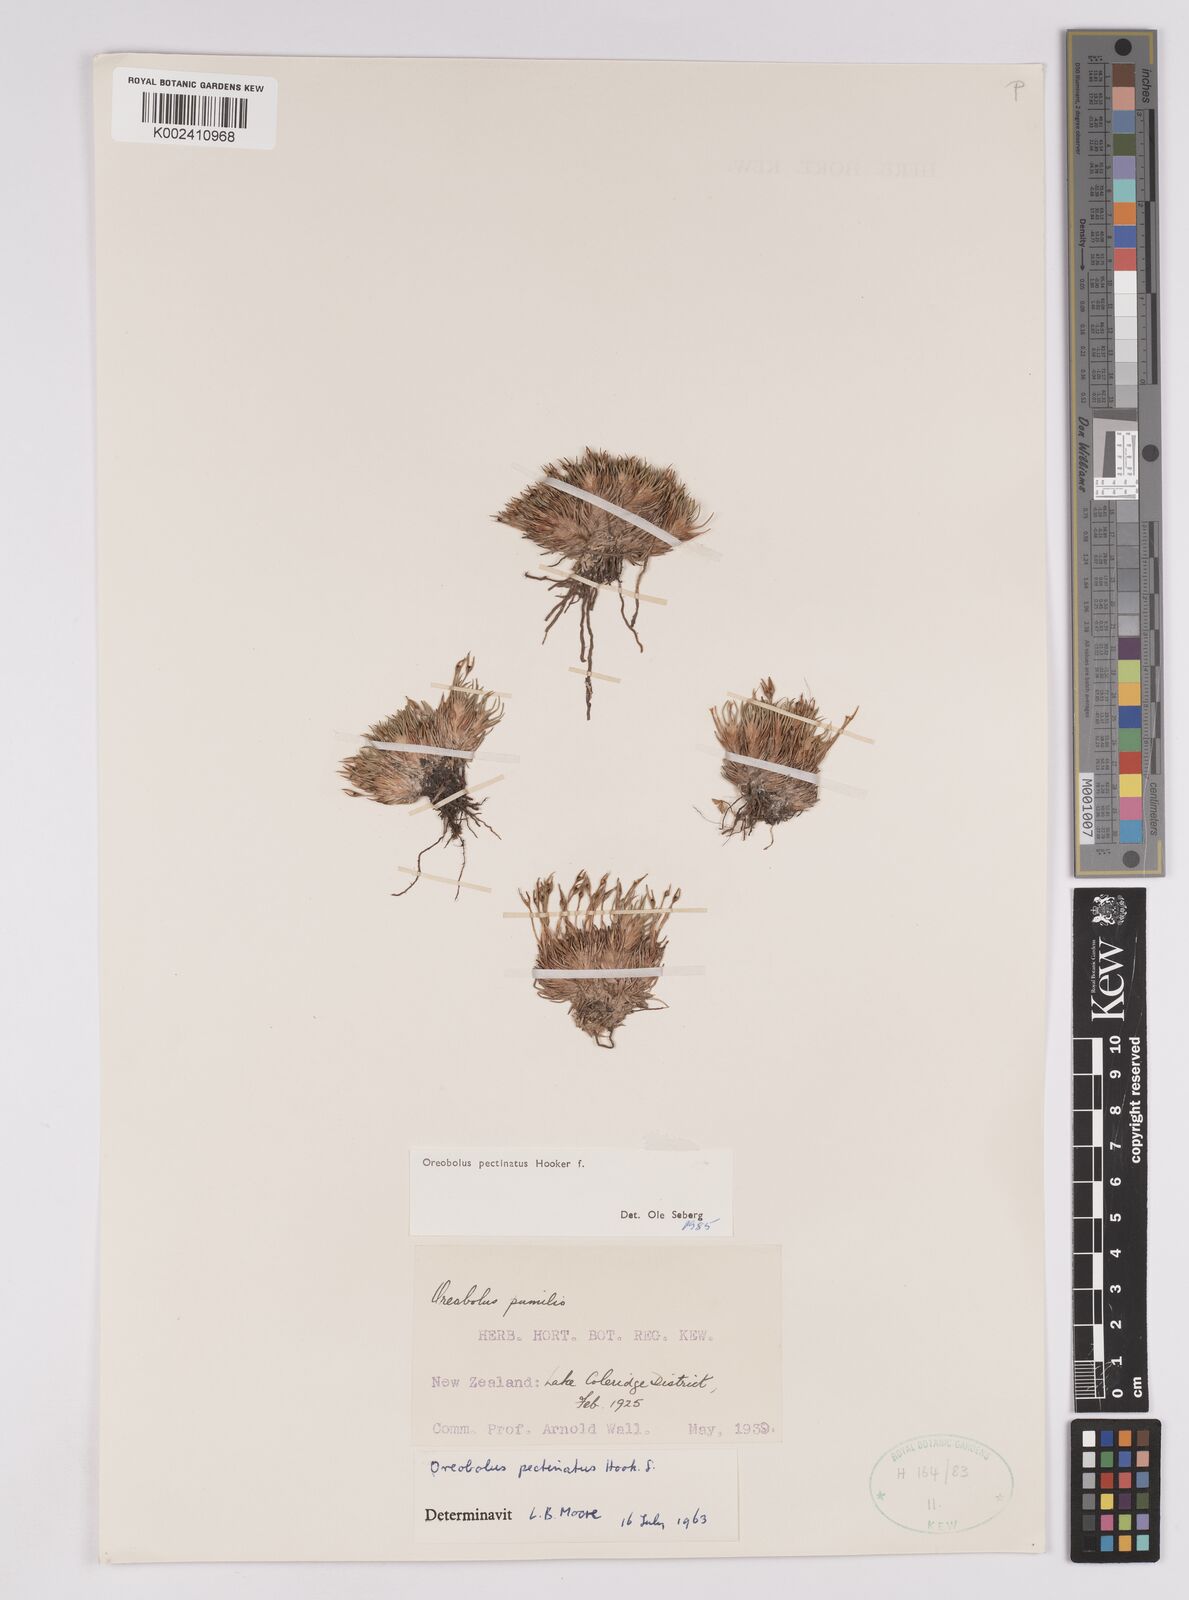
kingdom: Plantae
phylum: Tracheophyta
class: Liliopsida
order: Poales
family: Cyperaceae
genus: Oreobolus
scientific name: Oreobolus pectinatus
